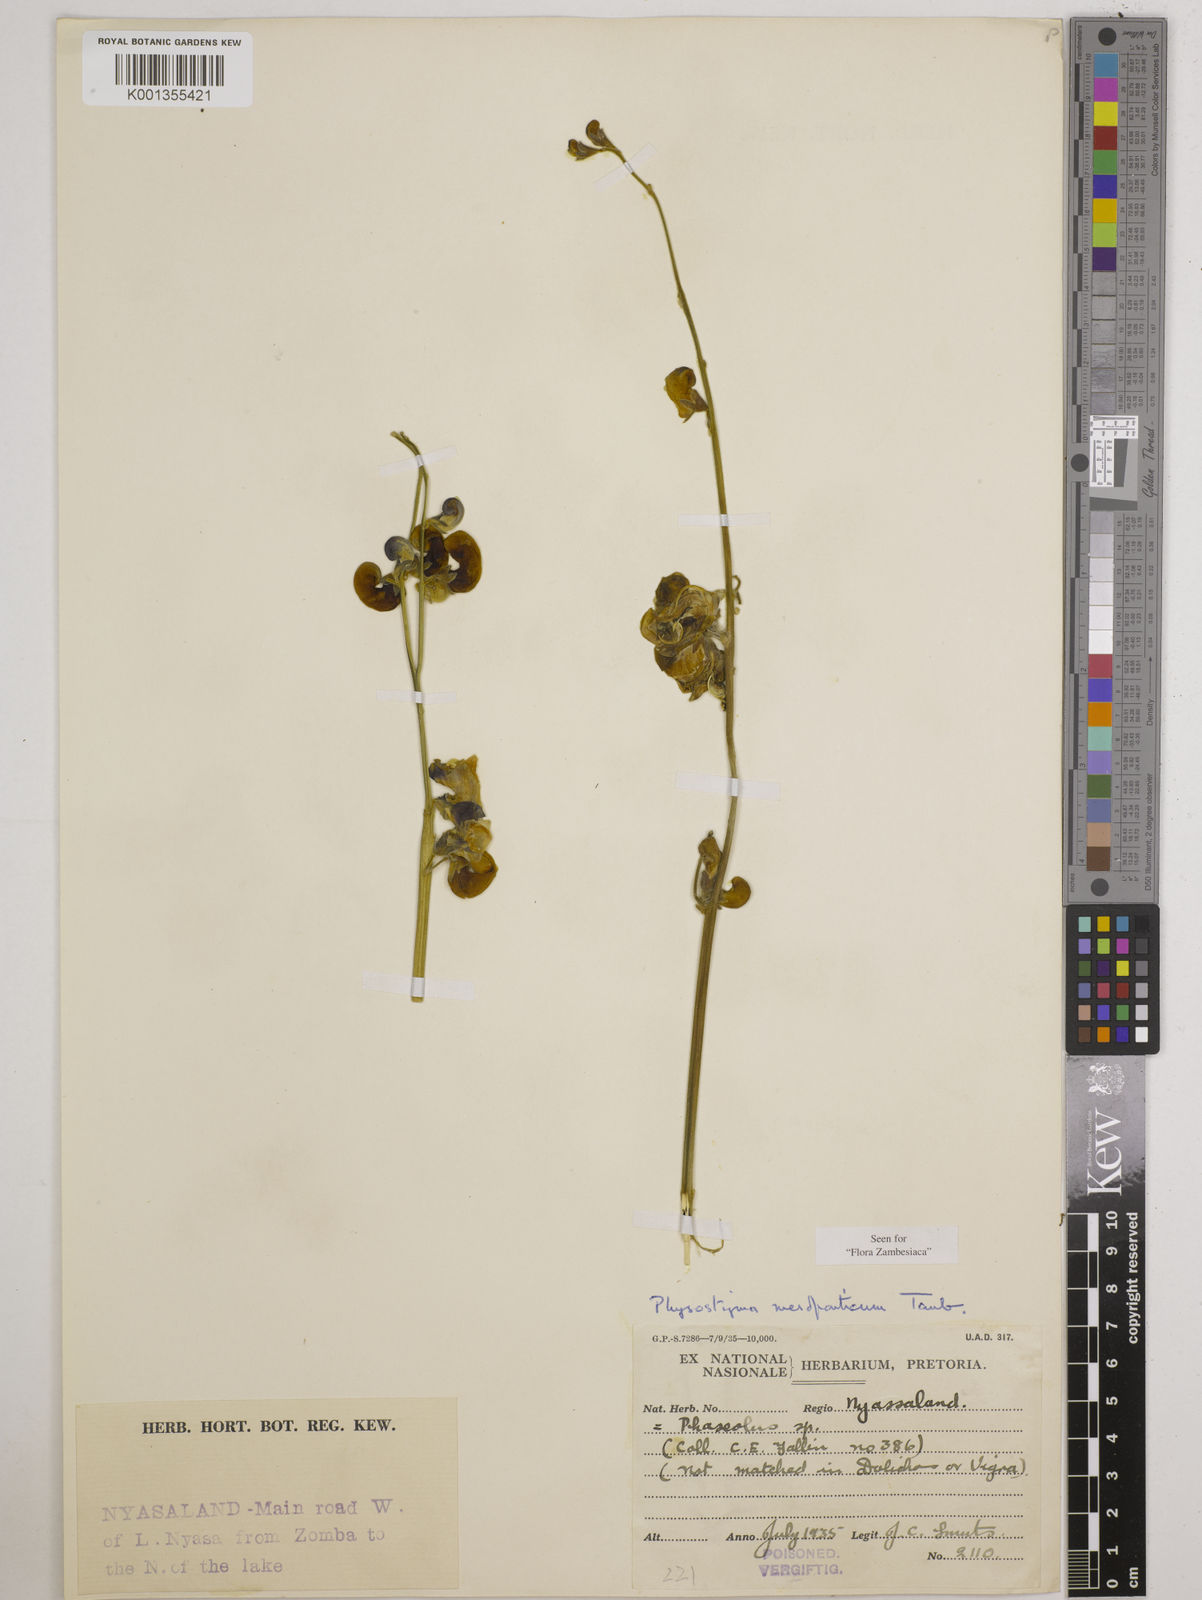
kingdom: Plantae
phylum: Tracheophyta
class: Magnoliopsida
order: Fabales
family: Fabaceae
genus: Physostigma
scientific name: Physostigma mesoponticum
